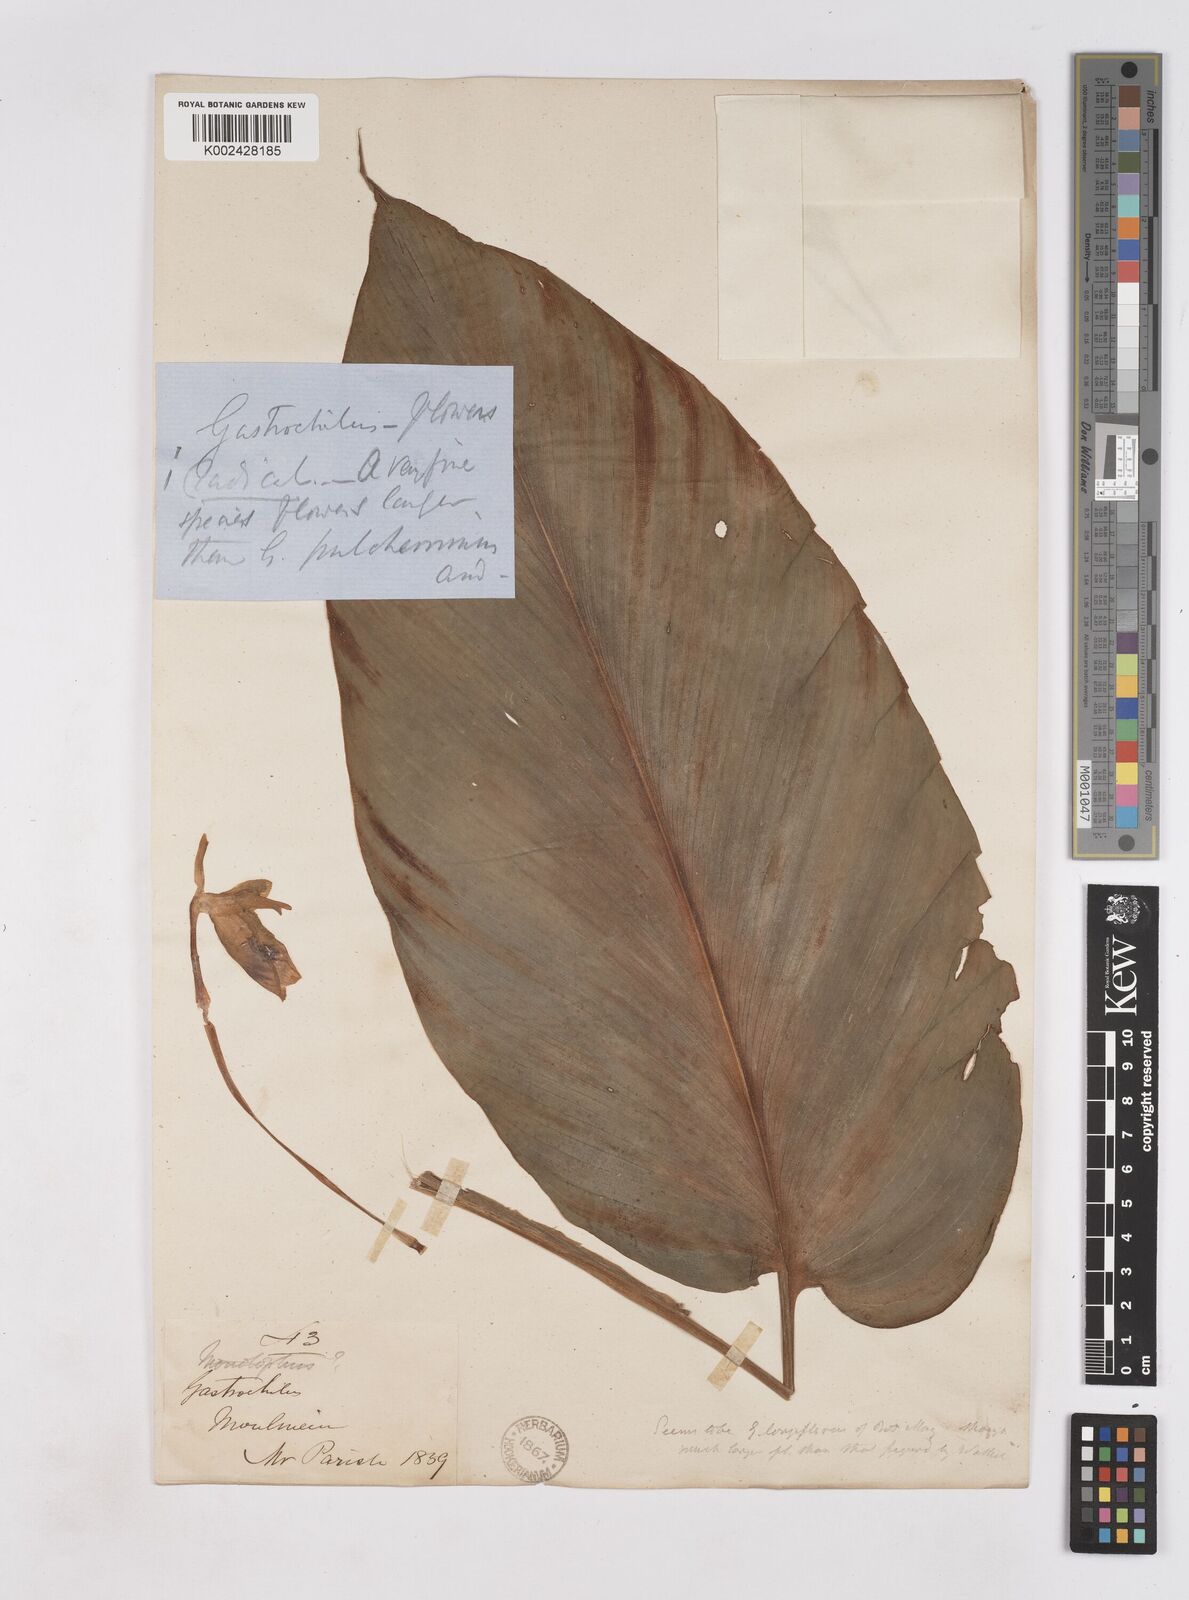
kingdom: Plantae
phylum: Tracheophyta
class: Liliopsida
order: Zingiberales
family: Zingiberaceae
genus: Boesenbergia
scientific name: Boesenbergia longiflora
